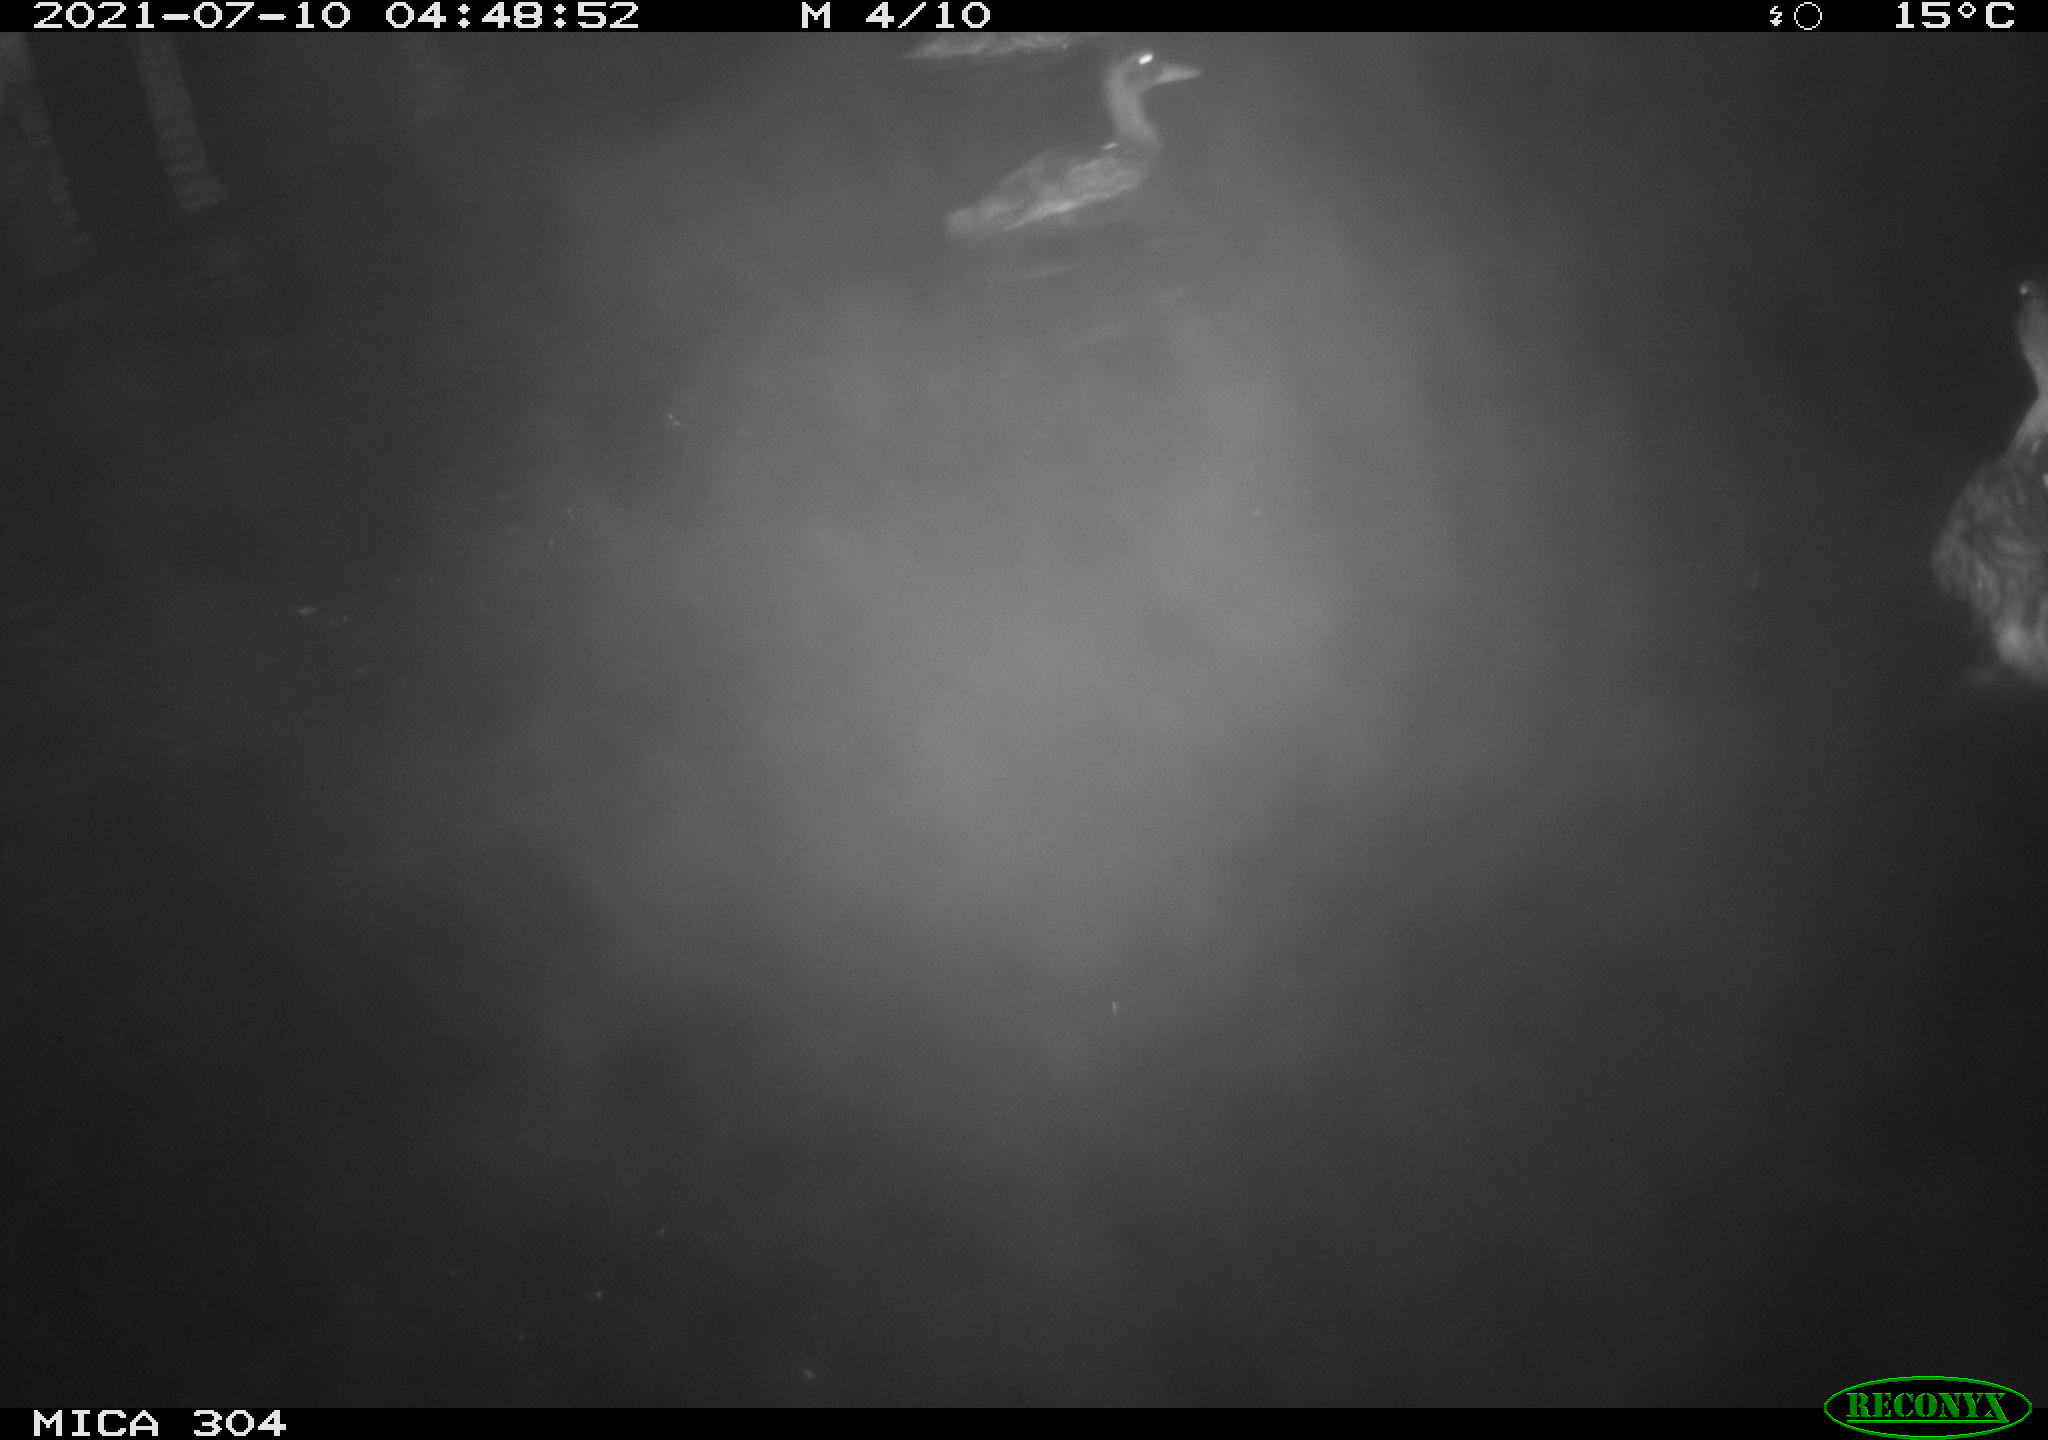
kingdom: Animalia
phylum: Chordata
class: Aves
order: Anseriformes
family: Anatidae
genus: Mareca
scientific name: Mareca strepera
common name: Gadwall
